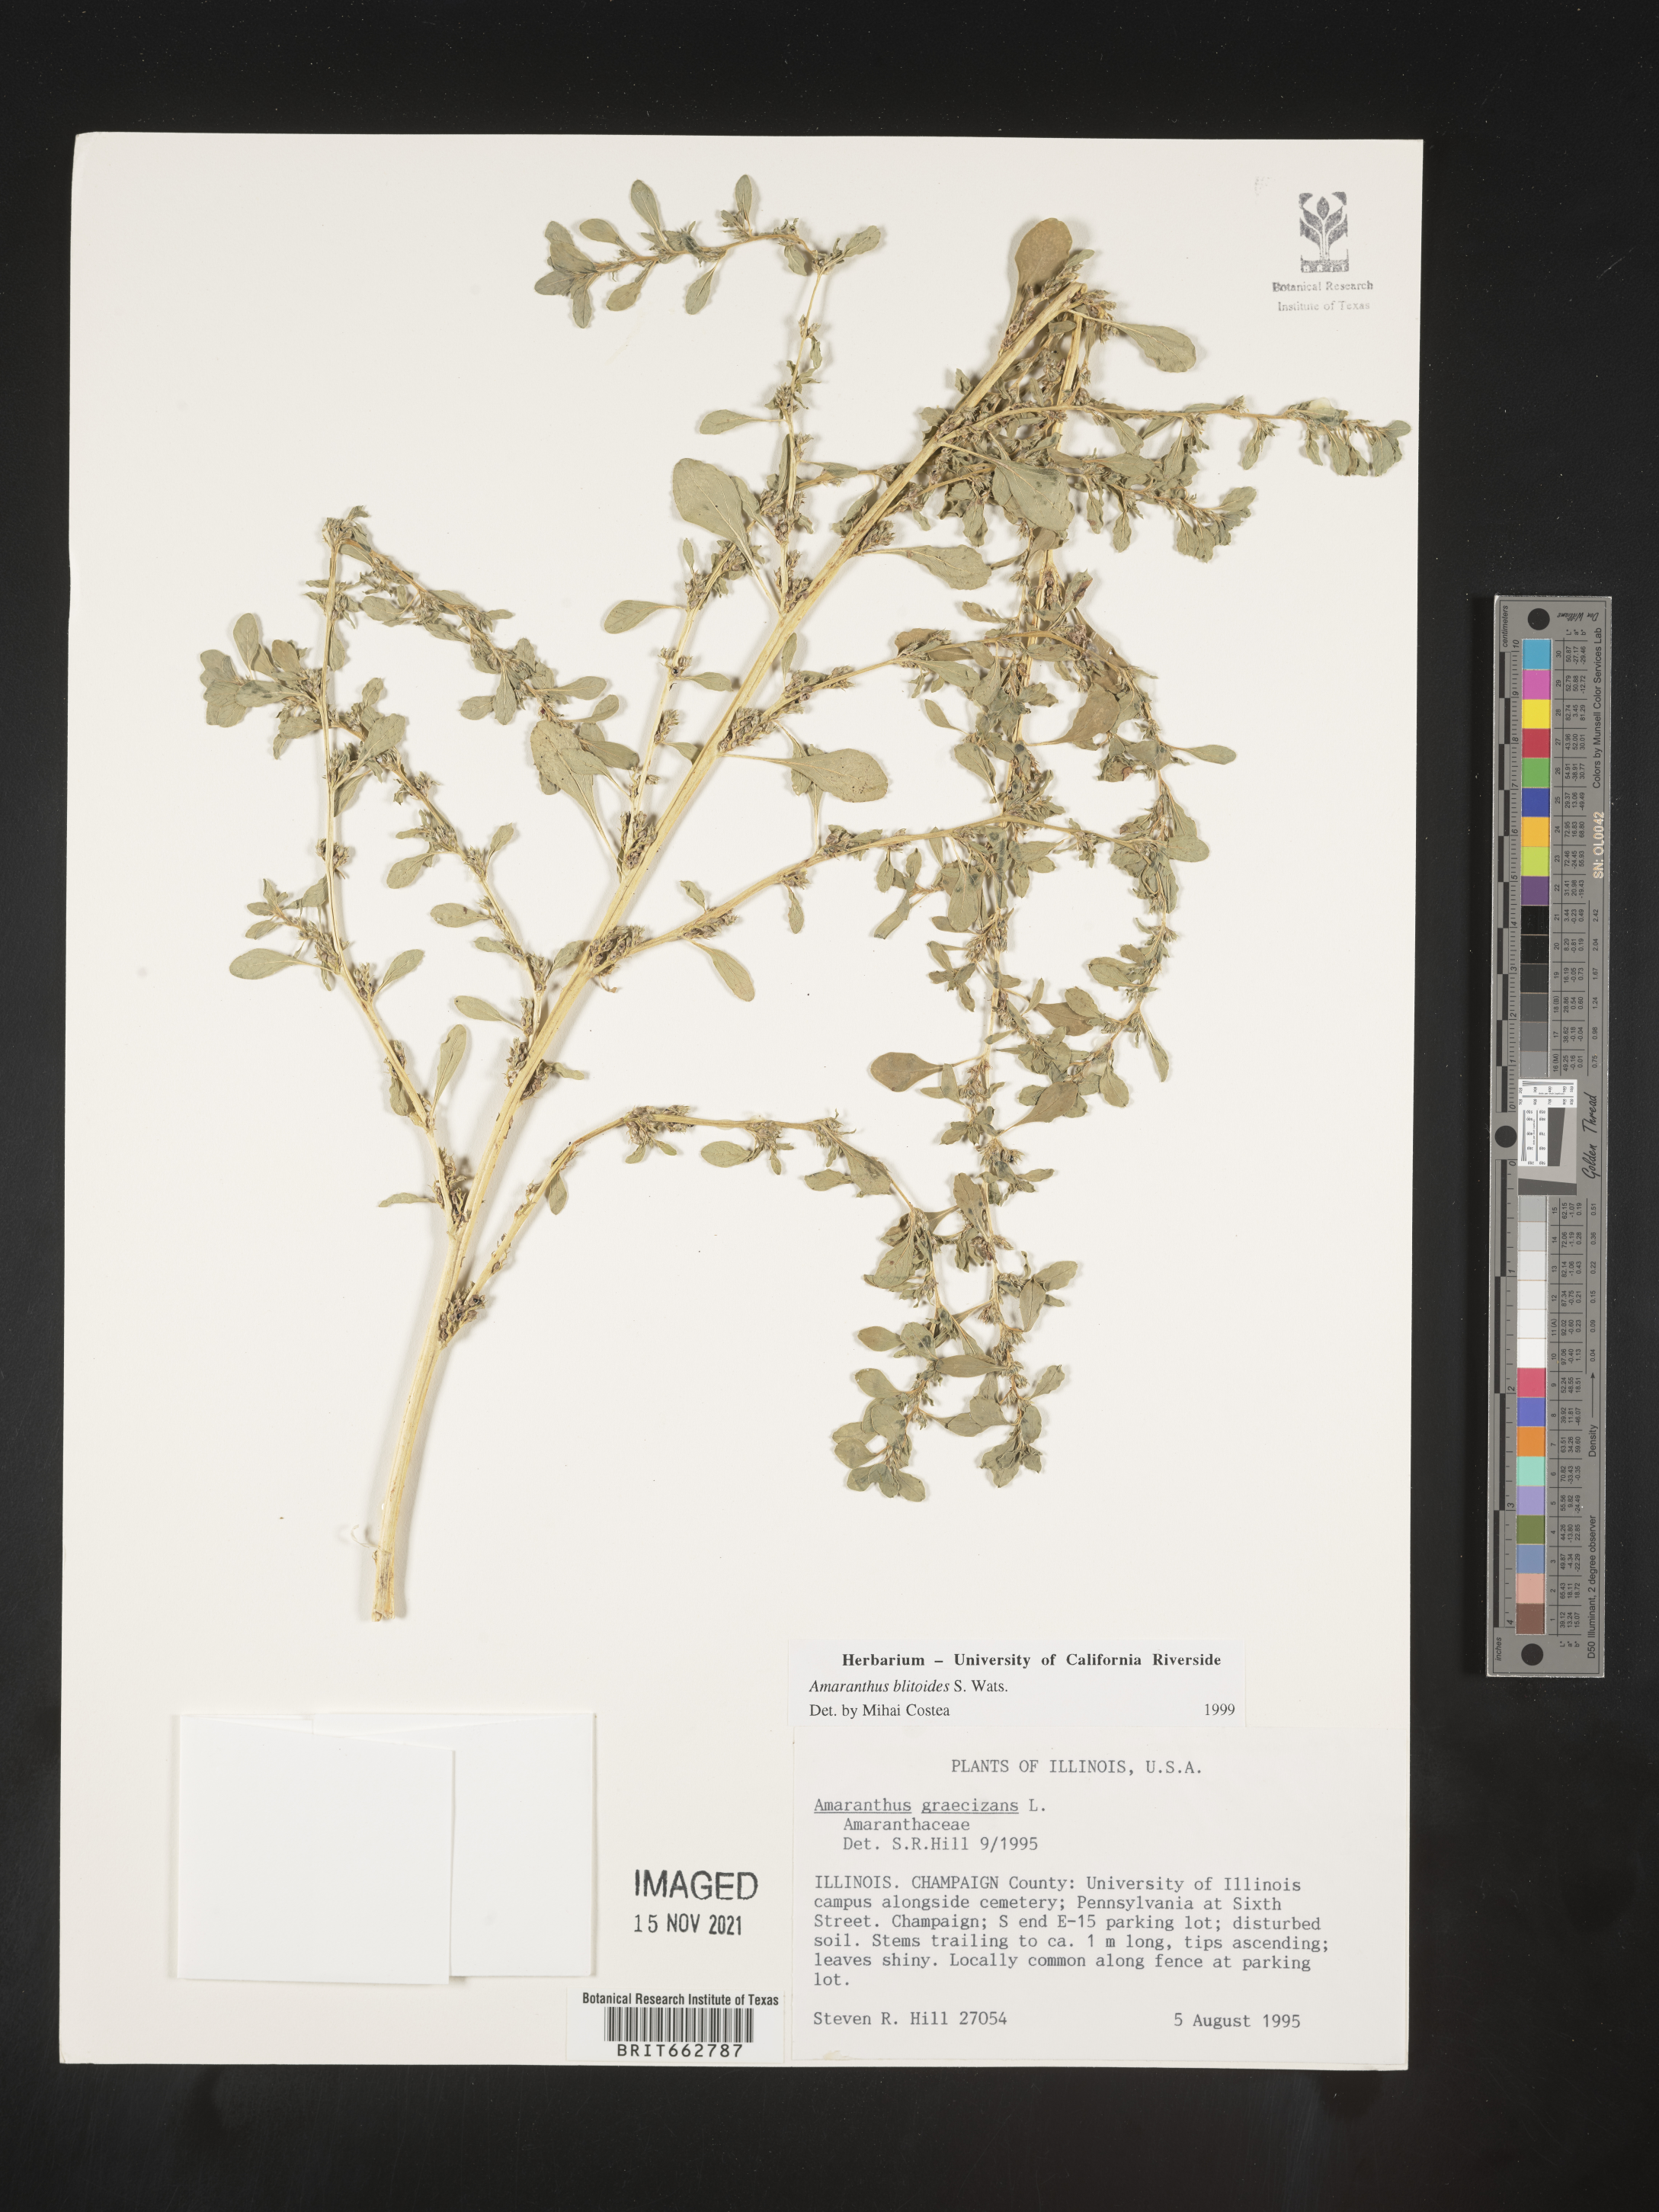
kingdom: Plantae
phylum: Tracheophyta
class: Magnoliopsida
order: Caryophyllales
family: Amaranthaceae
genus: Amaranthus
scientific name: Amaranthus blitoides
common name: Prostrate pigweed
